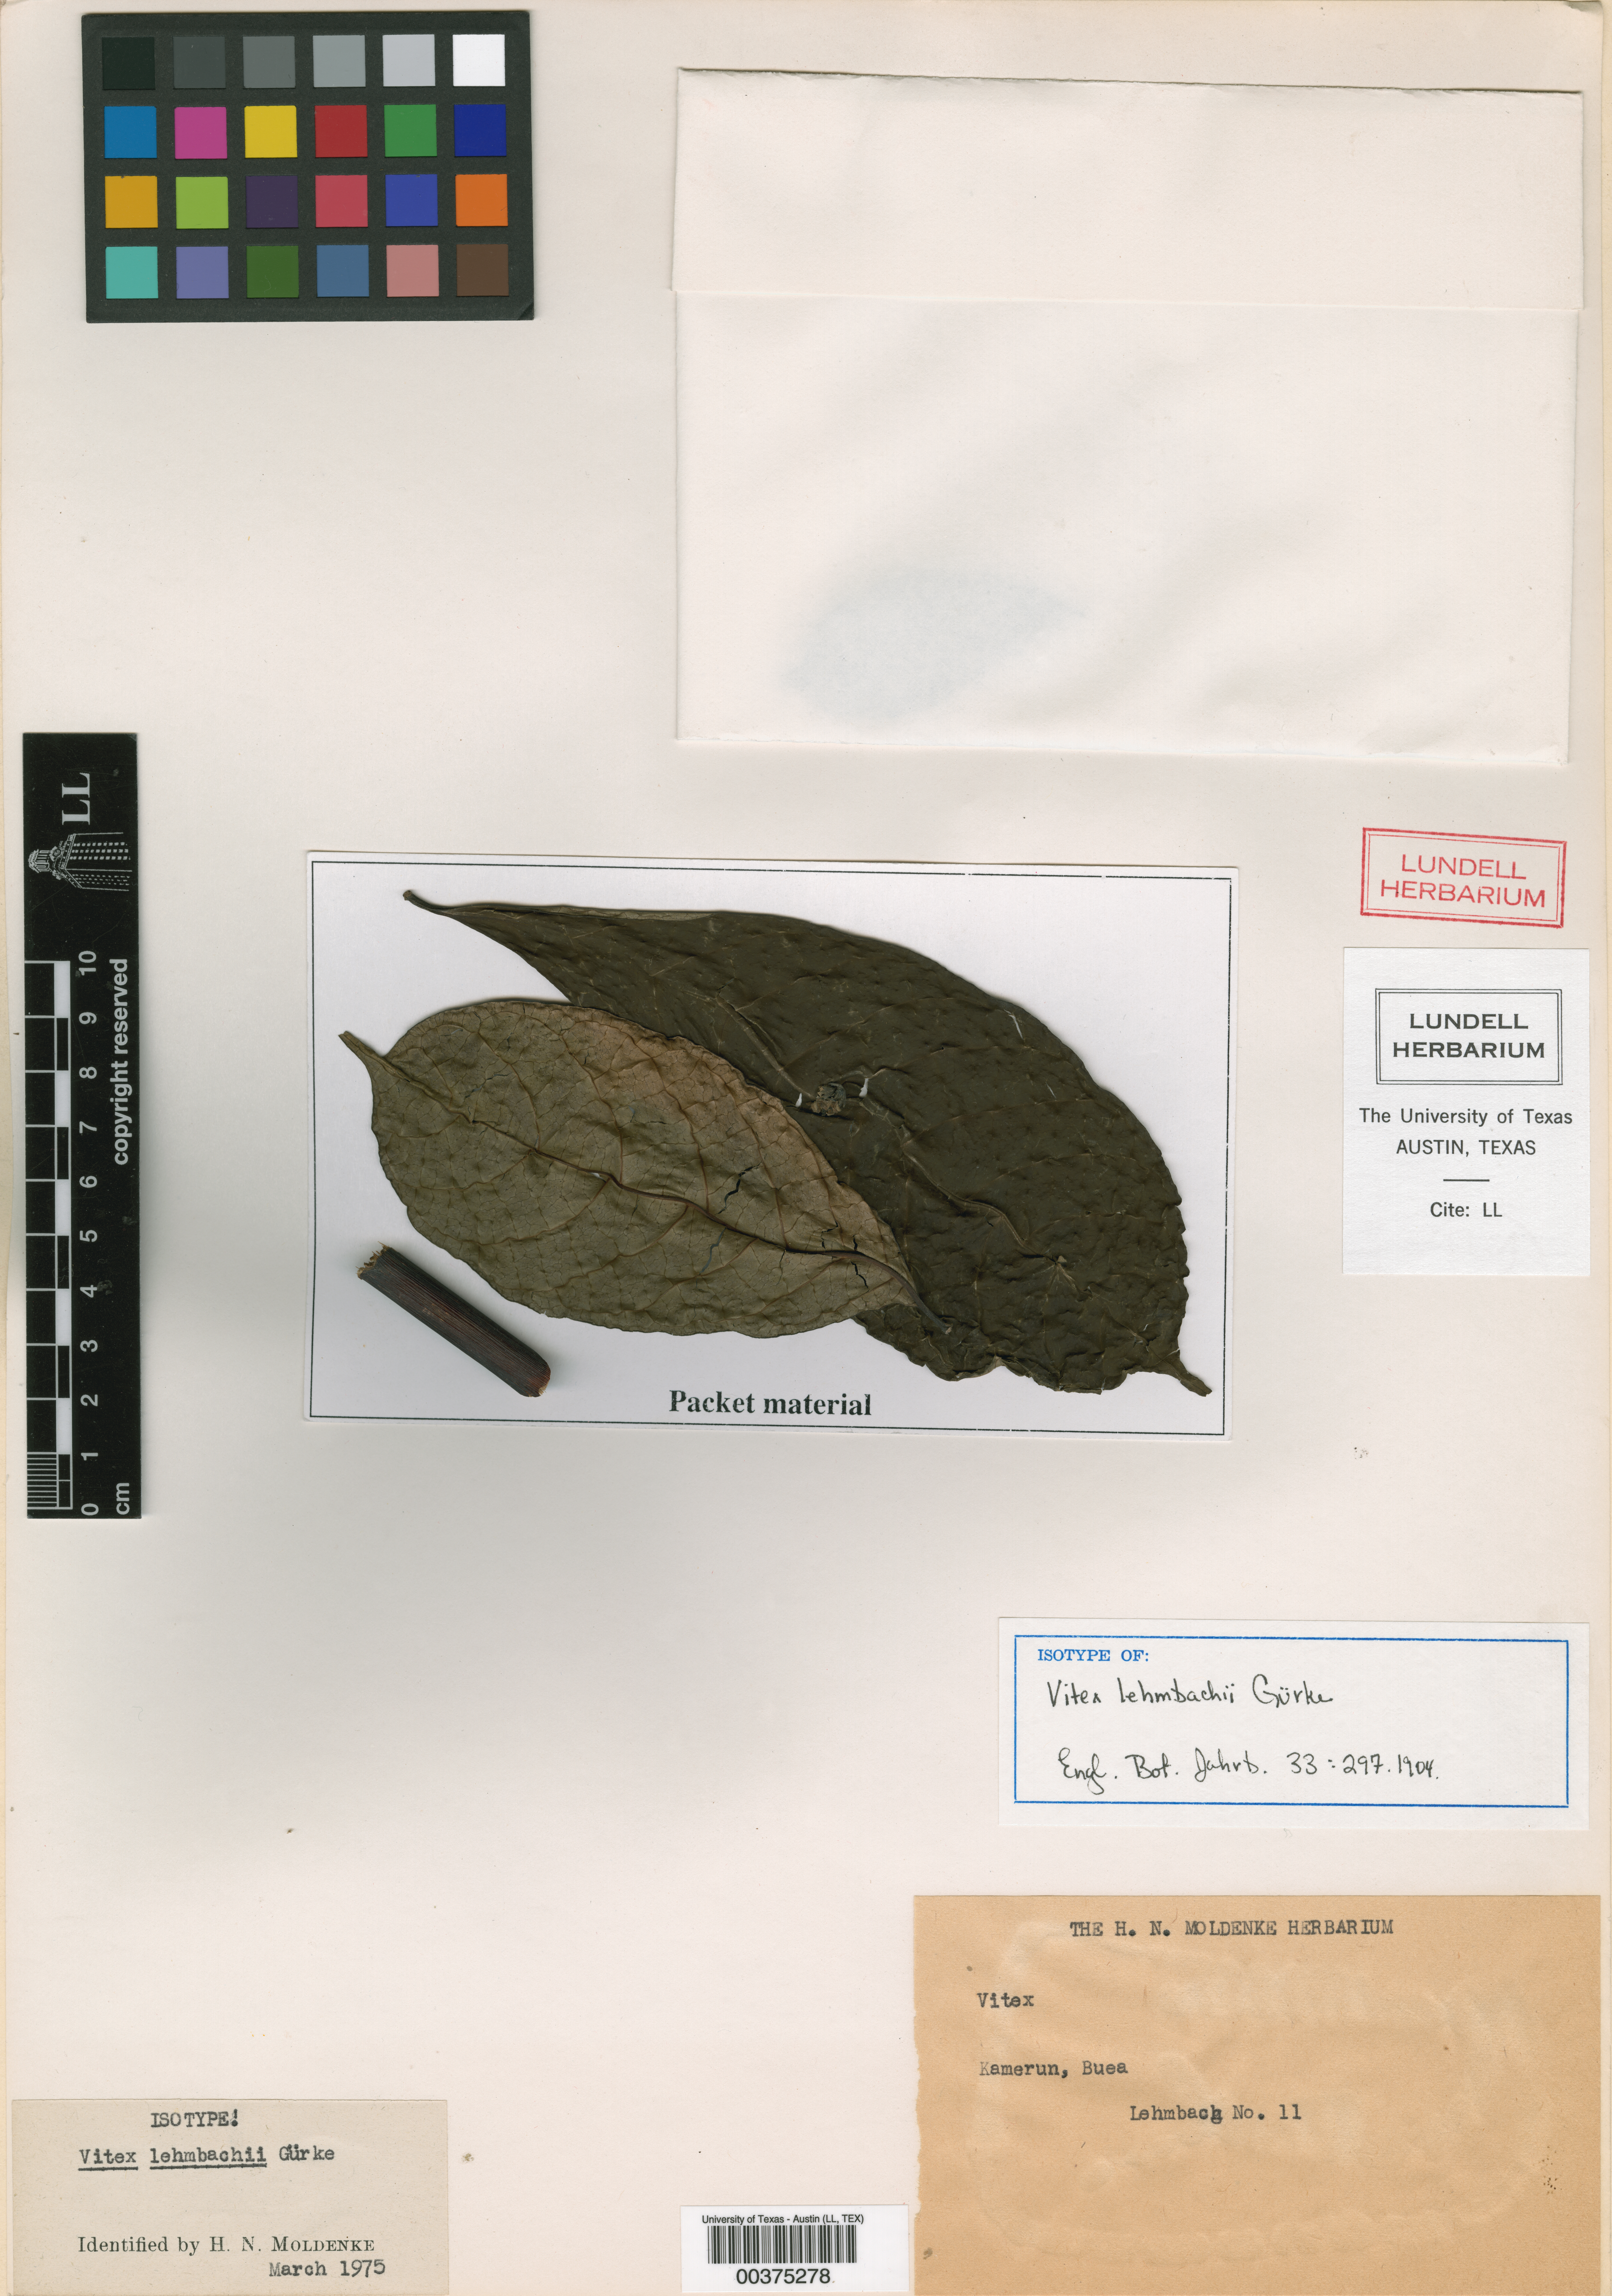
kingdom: Plantae
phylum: Tracheophyta
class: Magnoliopsida
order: Malpighiales
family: Hypericaceae
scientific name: Hypericaceae
